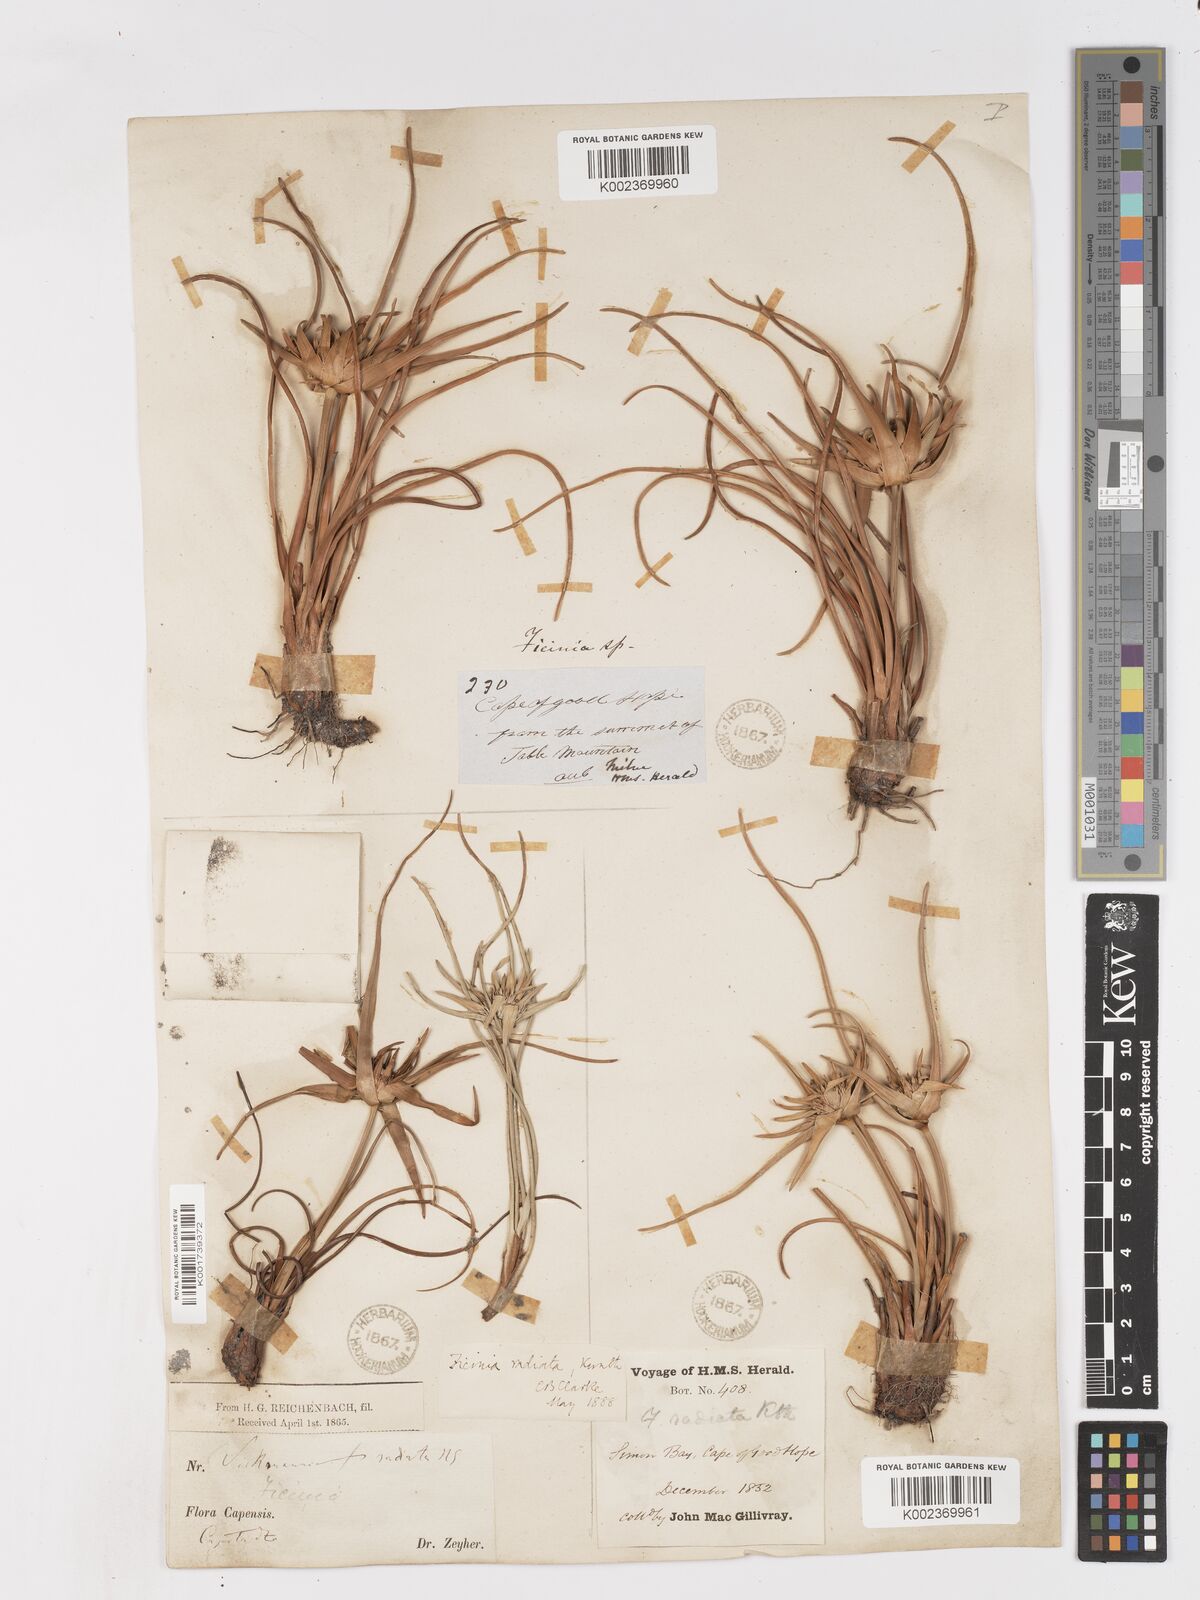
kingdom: Plantae
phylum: Tracheophyta
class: Liliopsida
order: Poales
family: Cyperaceae
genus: Ficinia
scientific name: Ficinia radiata
